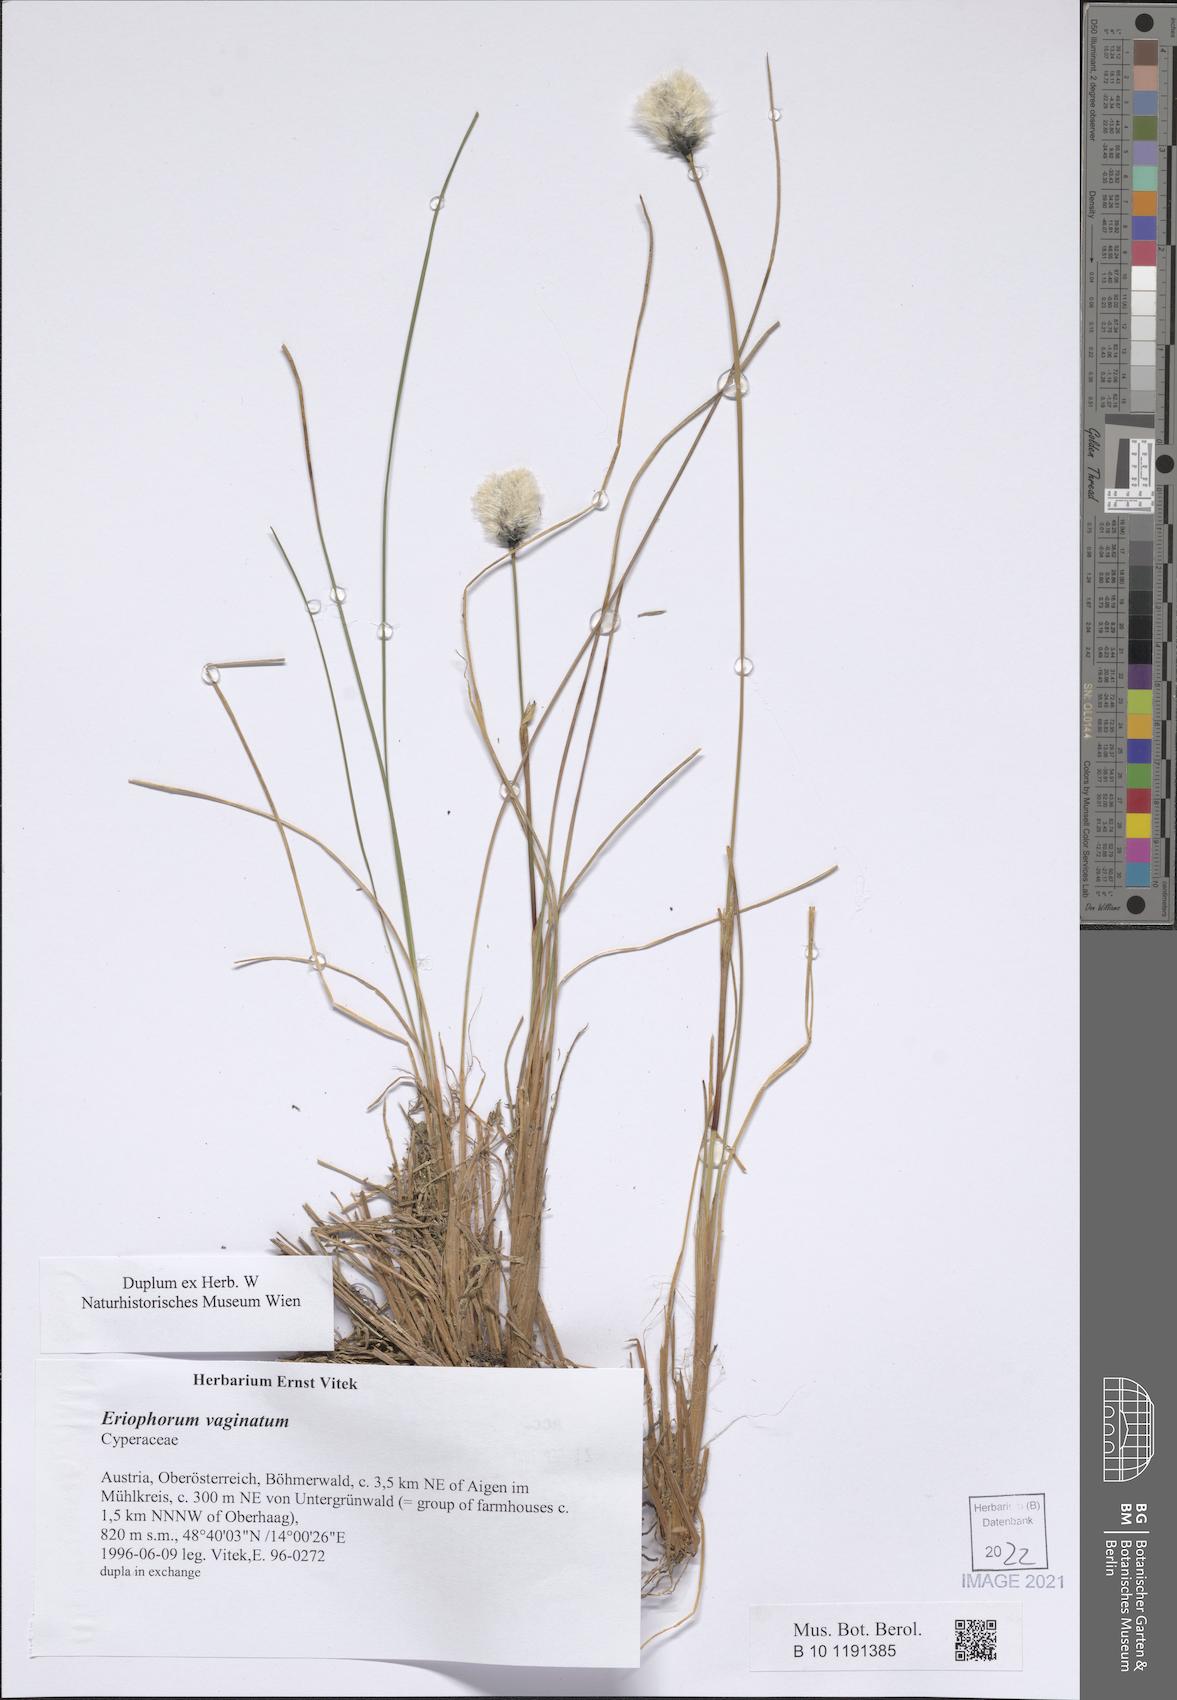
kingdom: Plantae
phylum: Tracheophyta
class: Liliopsida
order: Poales
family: Cyperaceae
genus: Eriophorum
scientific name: Eriophorum vaginatum
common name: Hare's-tail cottongrass
